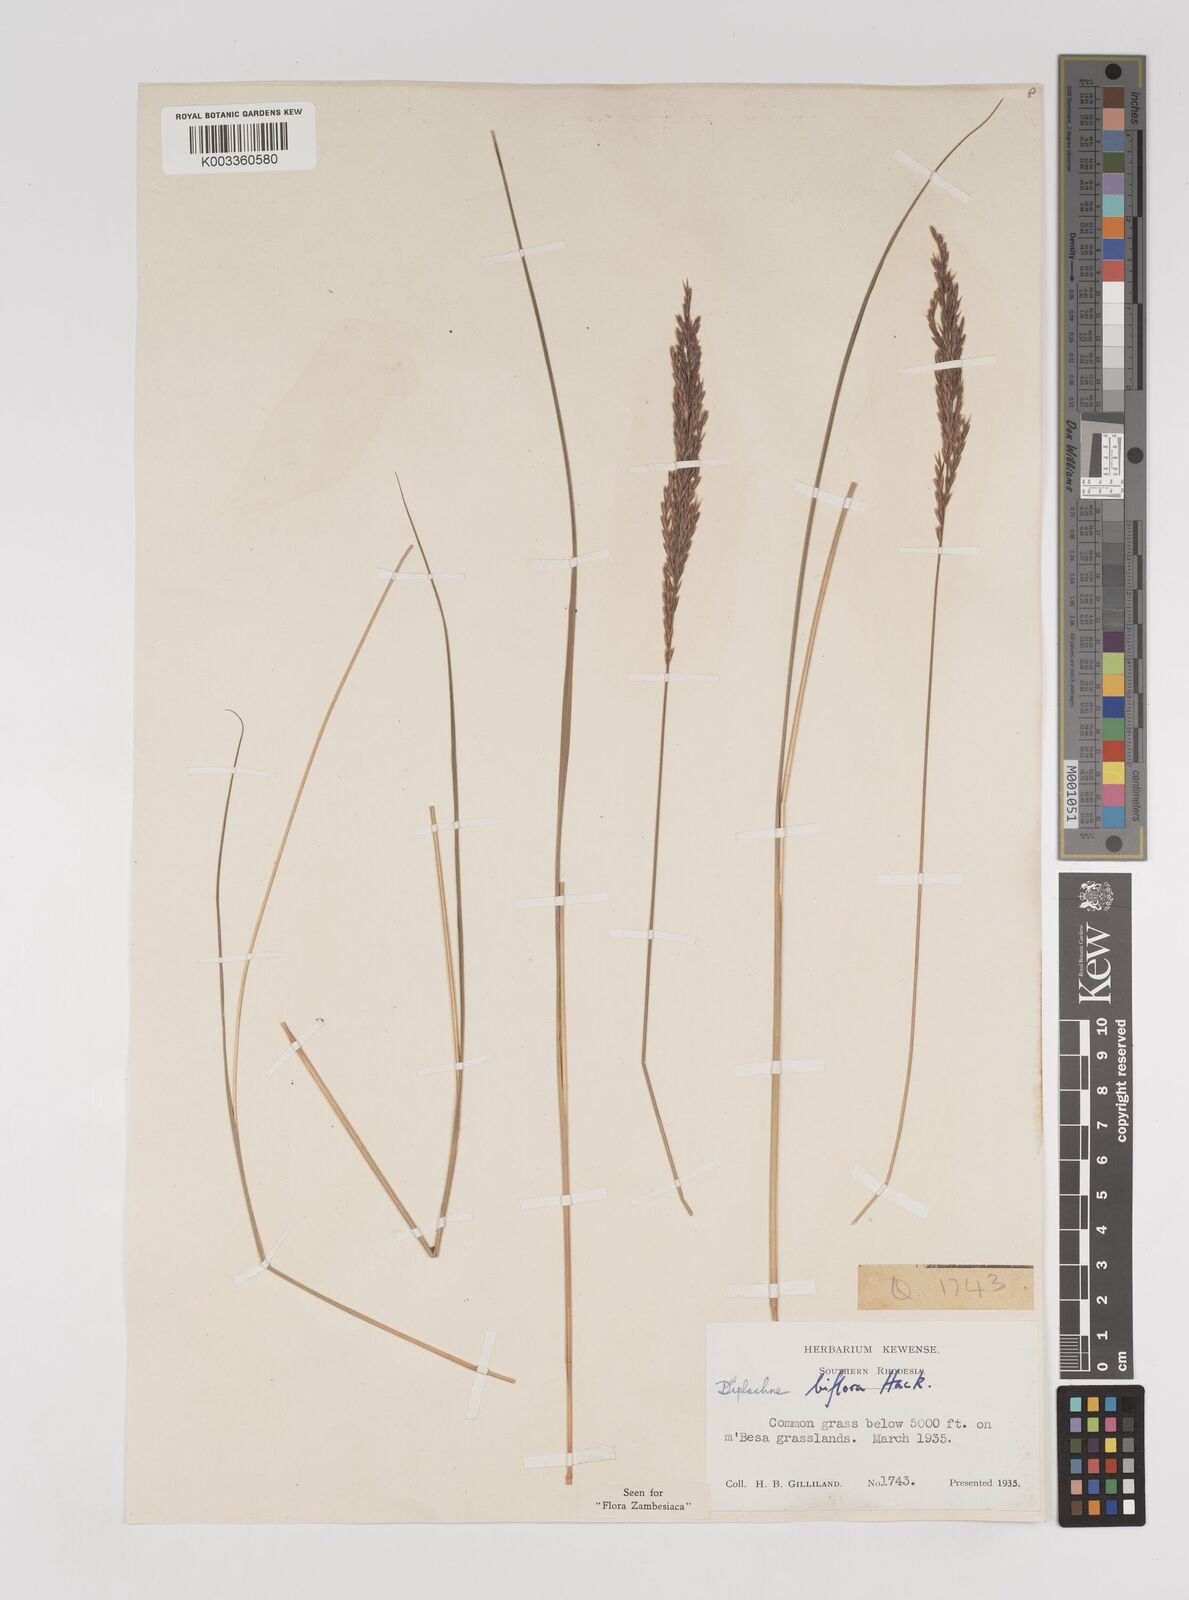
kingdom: Plantae
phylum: Tracheophyta
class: Liliopsida
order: Poales
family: Poaceae
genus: Bewsia
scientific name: Bewsia biflora
